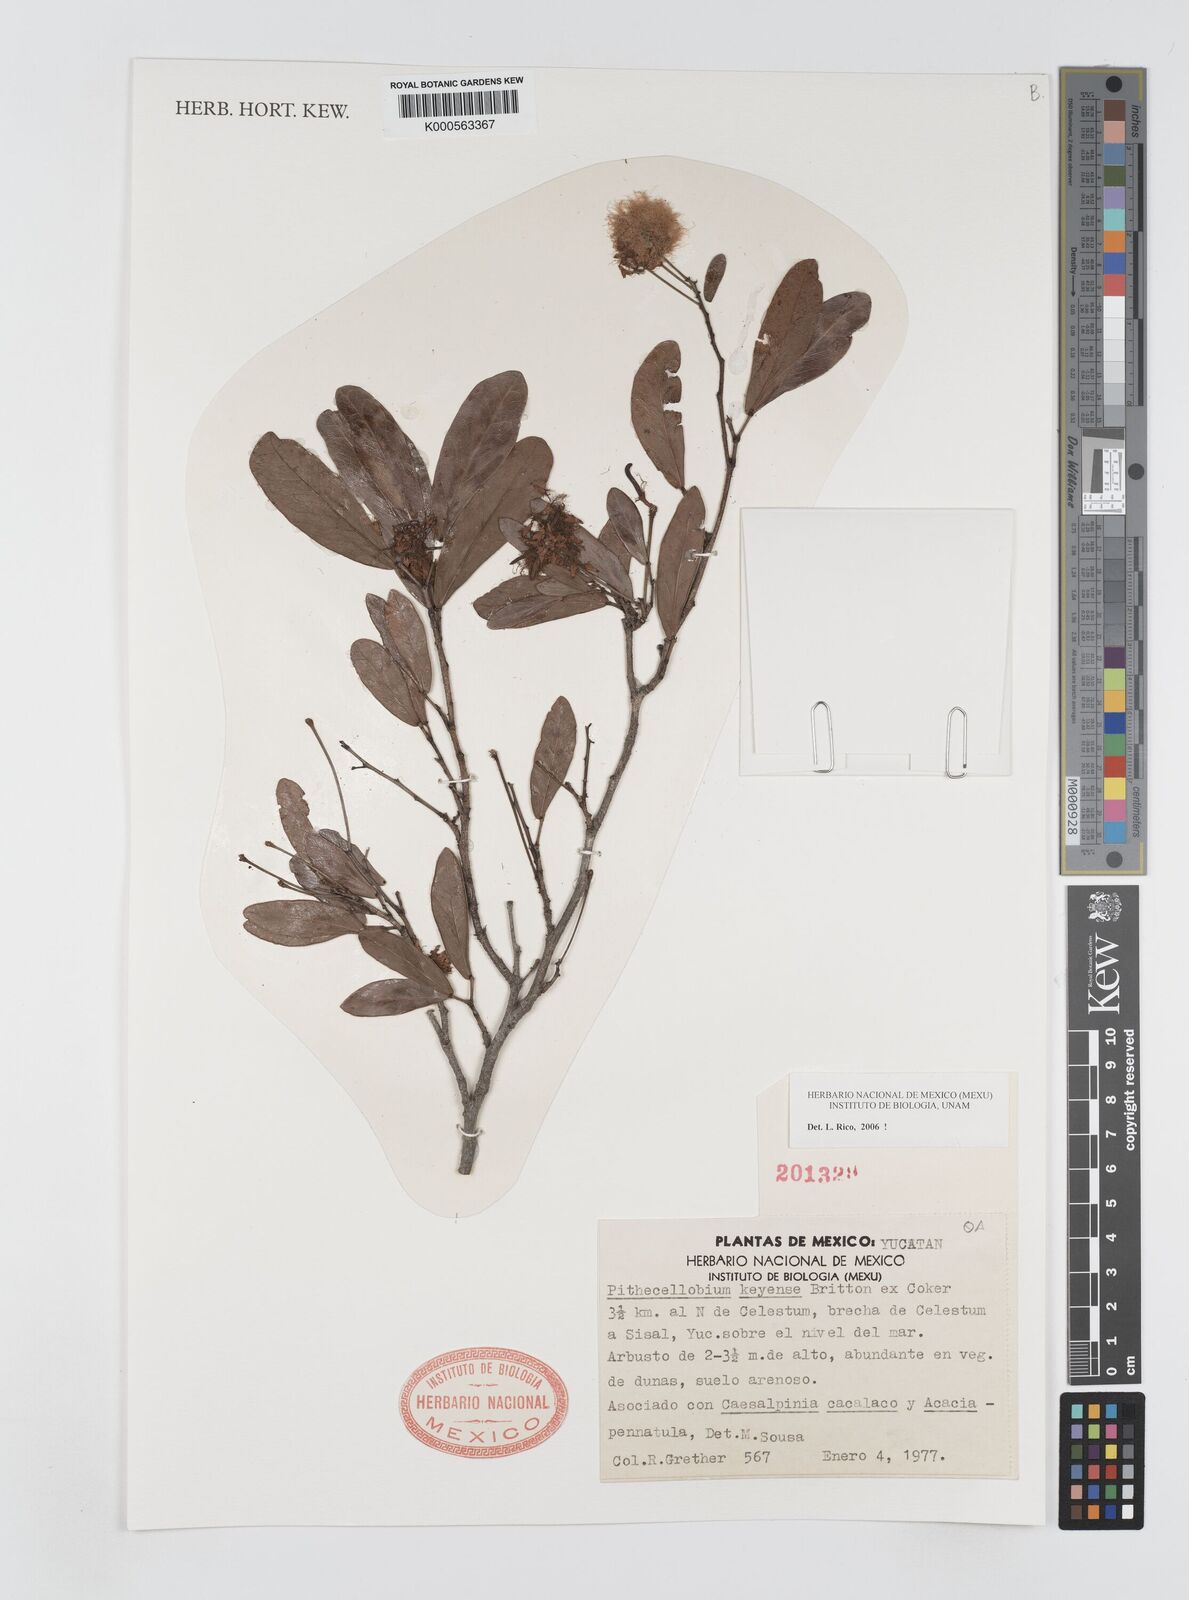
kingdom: Plantae
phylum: Tracheophyta
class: Magnoliopsida
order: Fabales
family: Fabaceae
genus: Pithecellobium
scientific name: Pithecellobium
